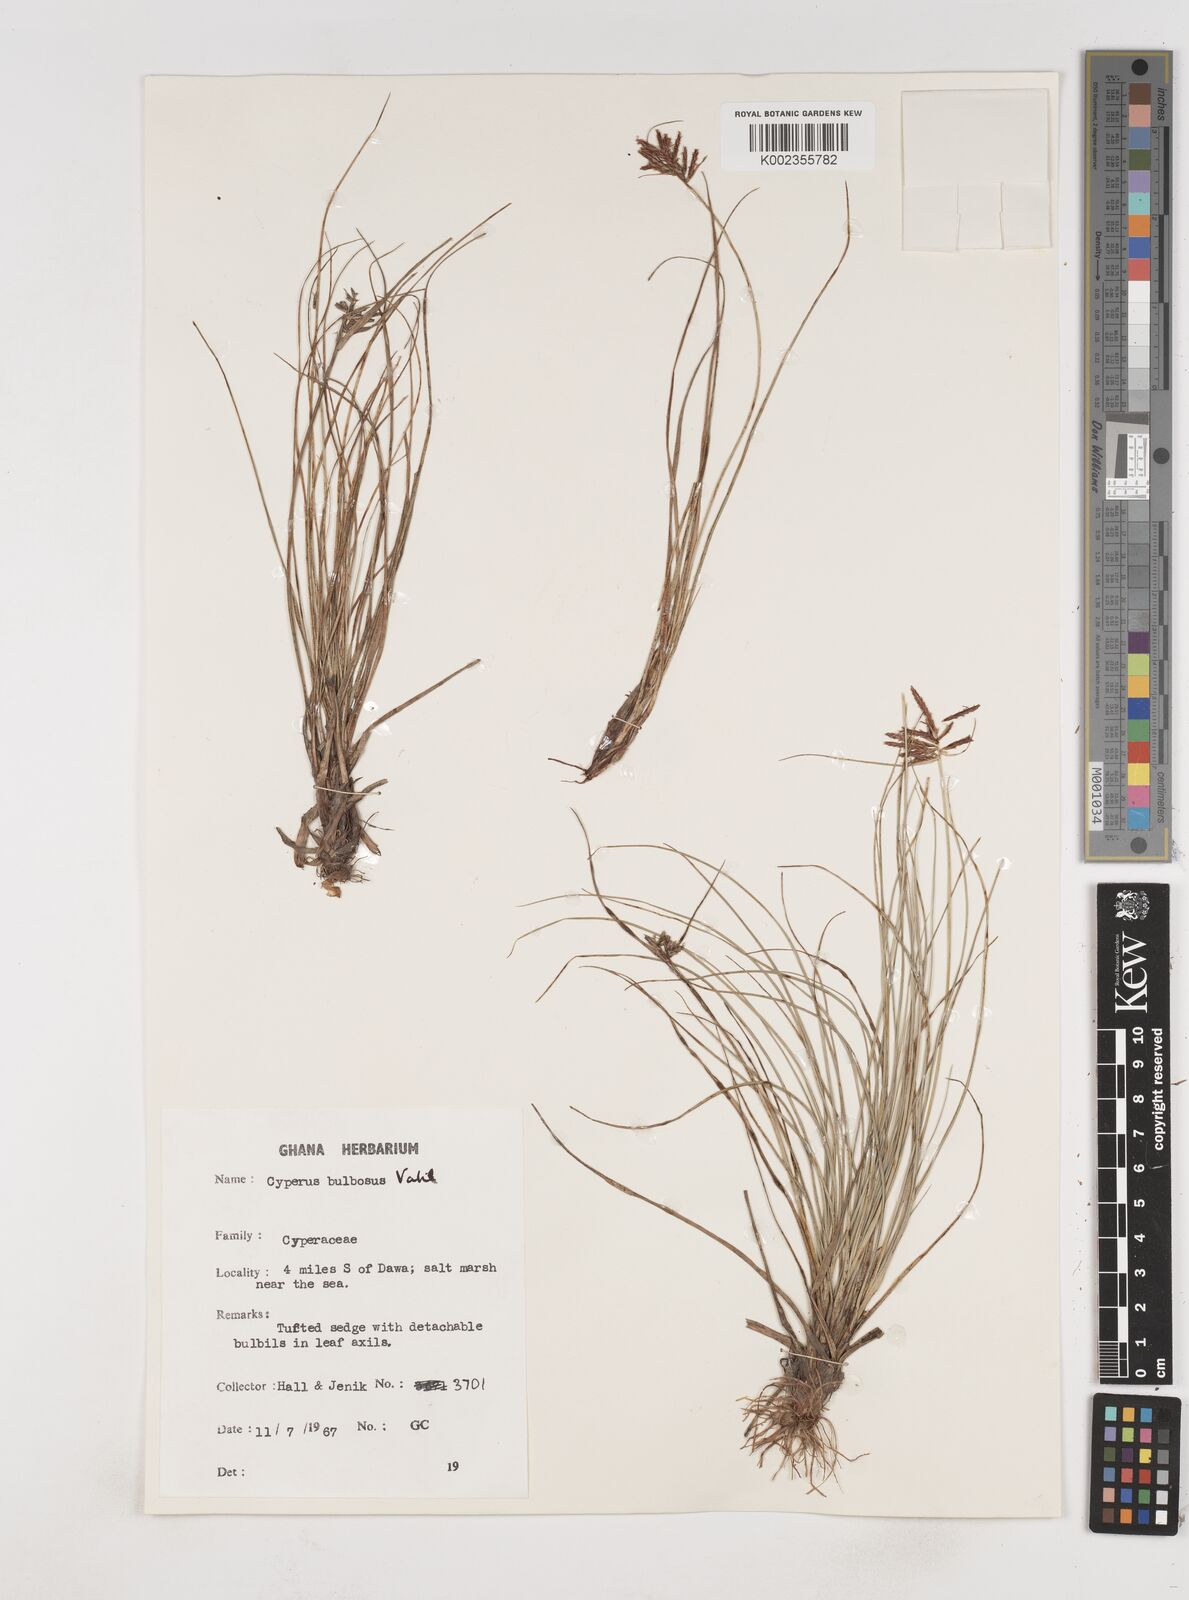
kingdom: Plantae
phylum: Tracheophyta
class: Liliopsida
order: Poales
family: Cyperaceae
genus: Cyperus
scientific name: Cyperus bulbosus
